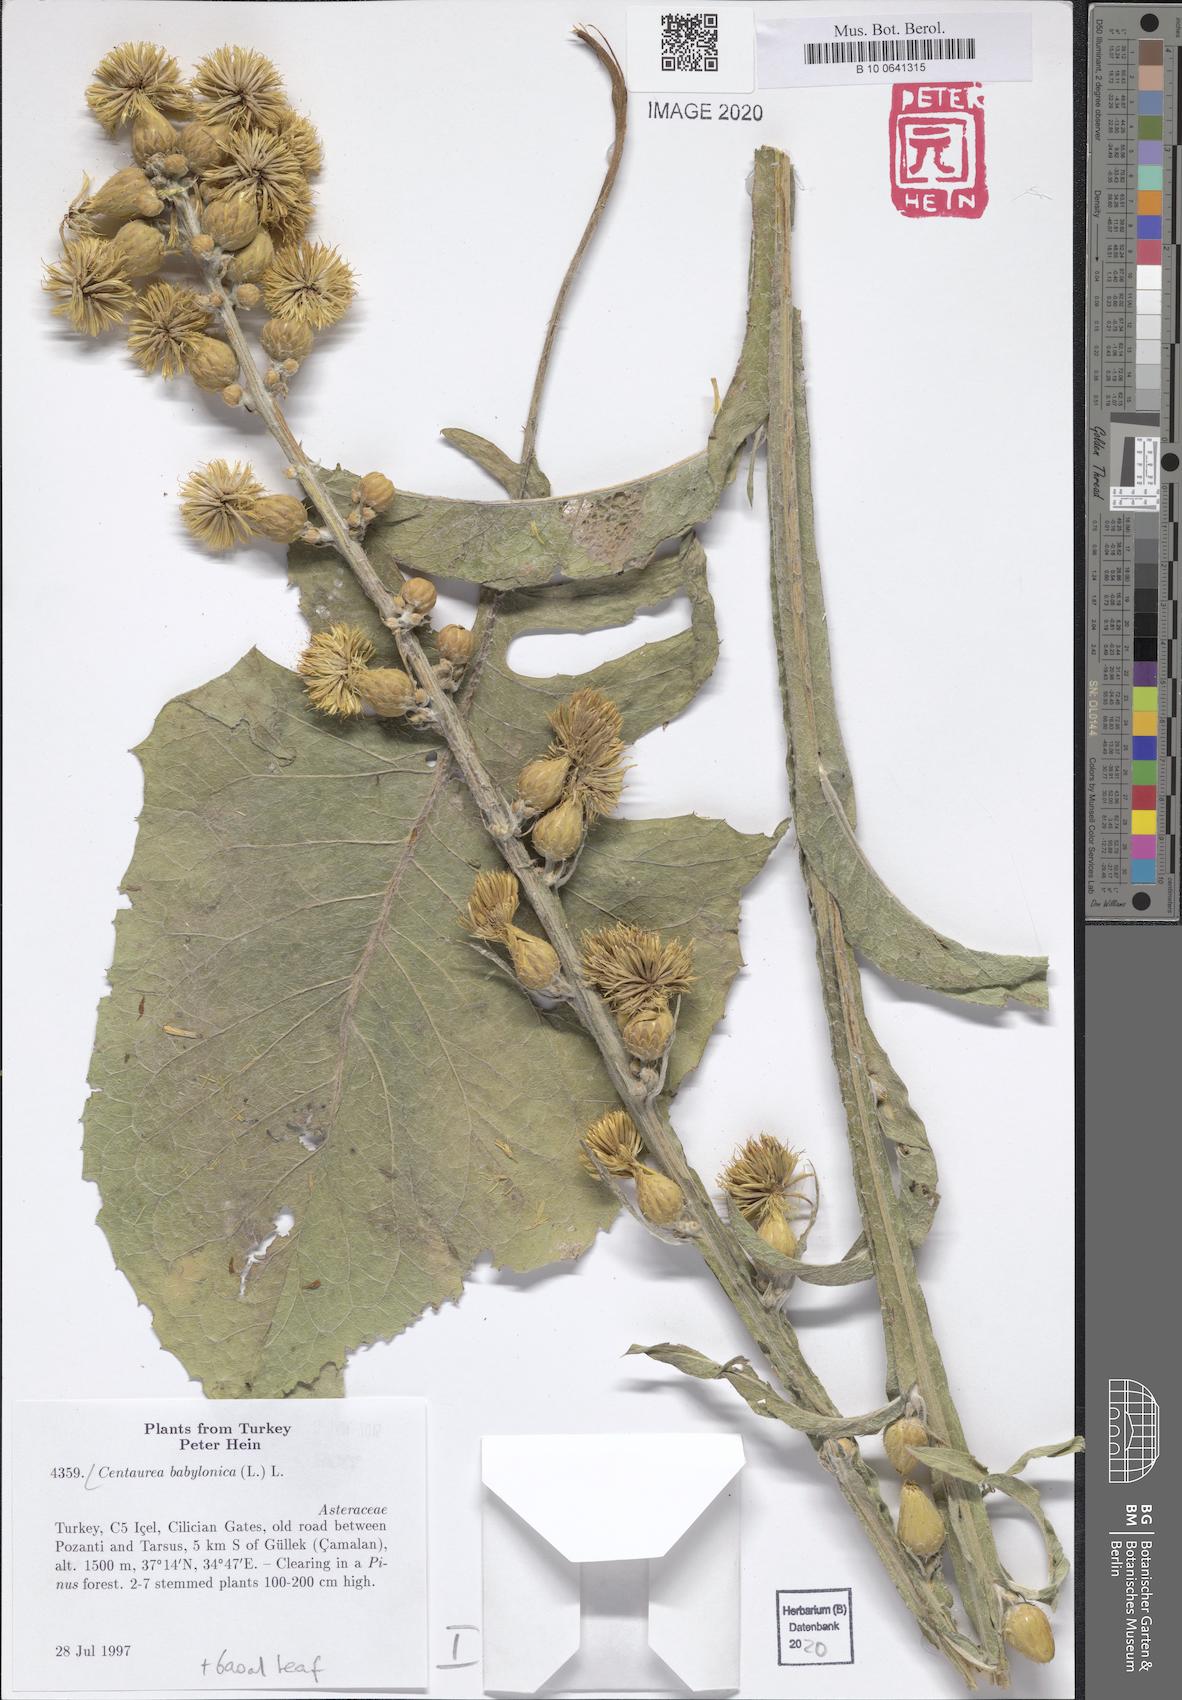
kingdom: Plantae
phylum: Tracheophyta
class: Magnoliopsida
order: Asterales
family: Asteraceae
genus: Centaurea
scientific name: Centaurea babylonica
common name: Syrian knapweed
